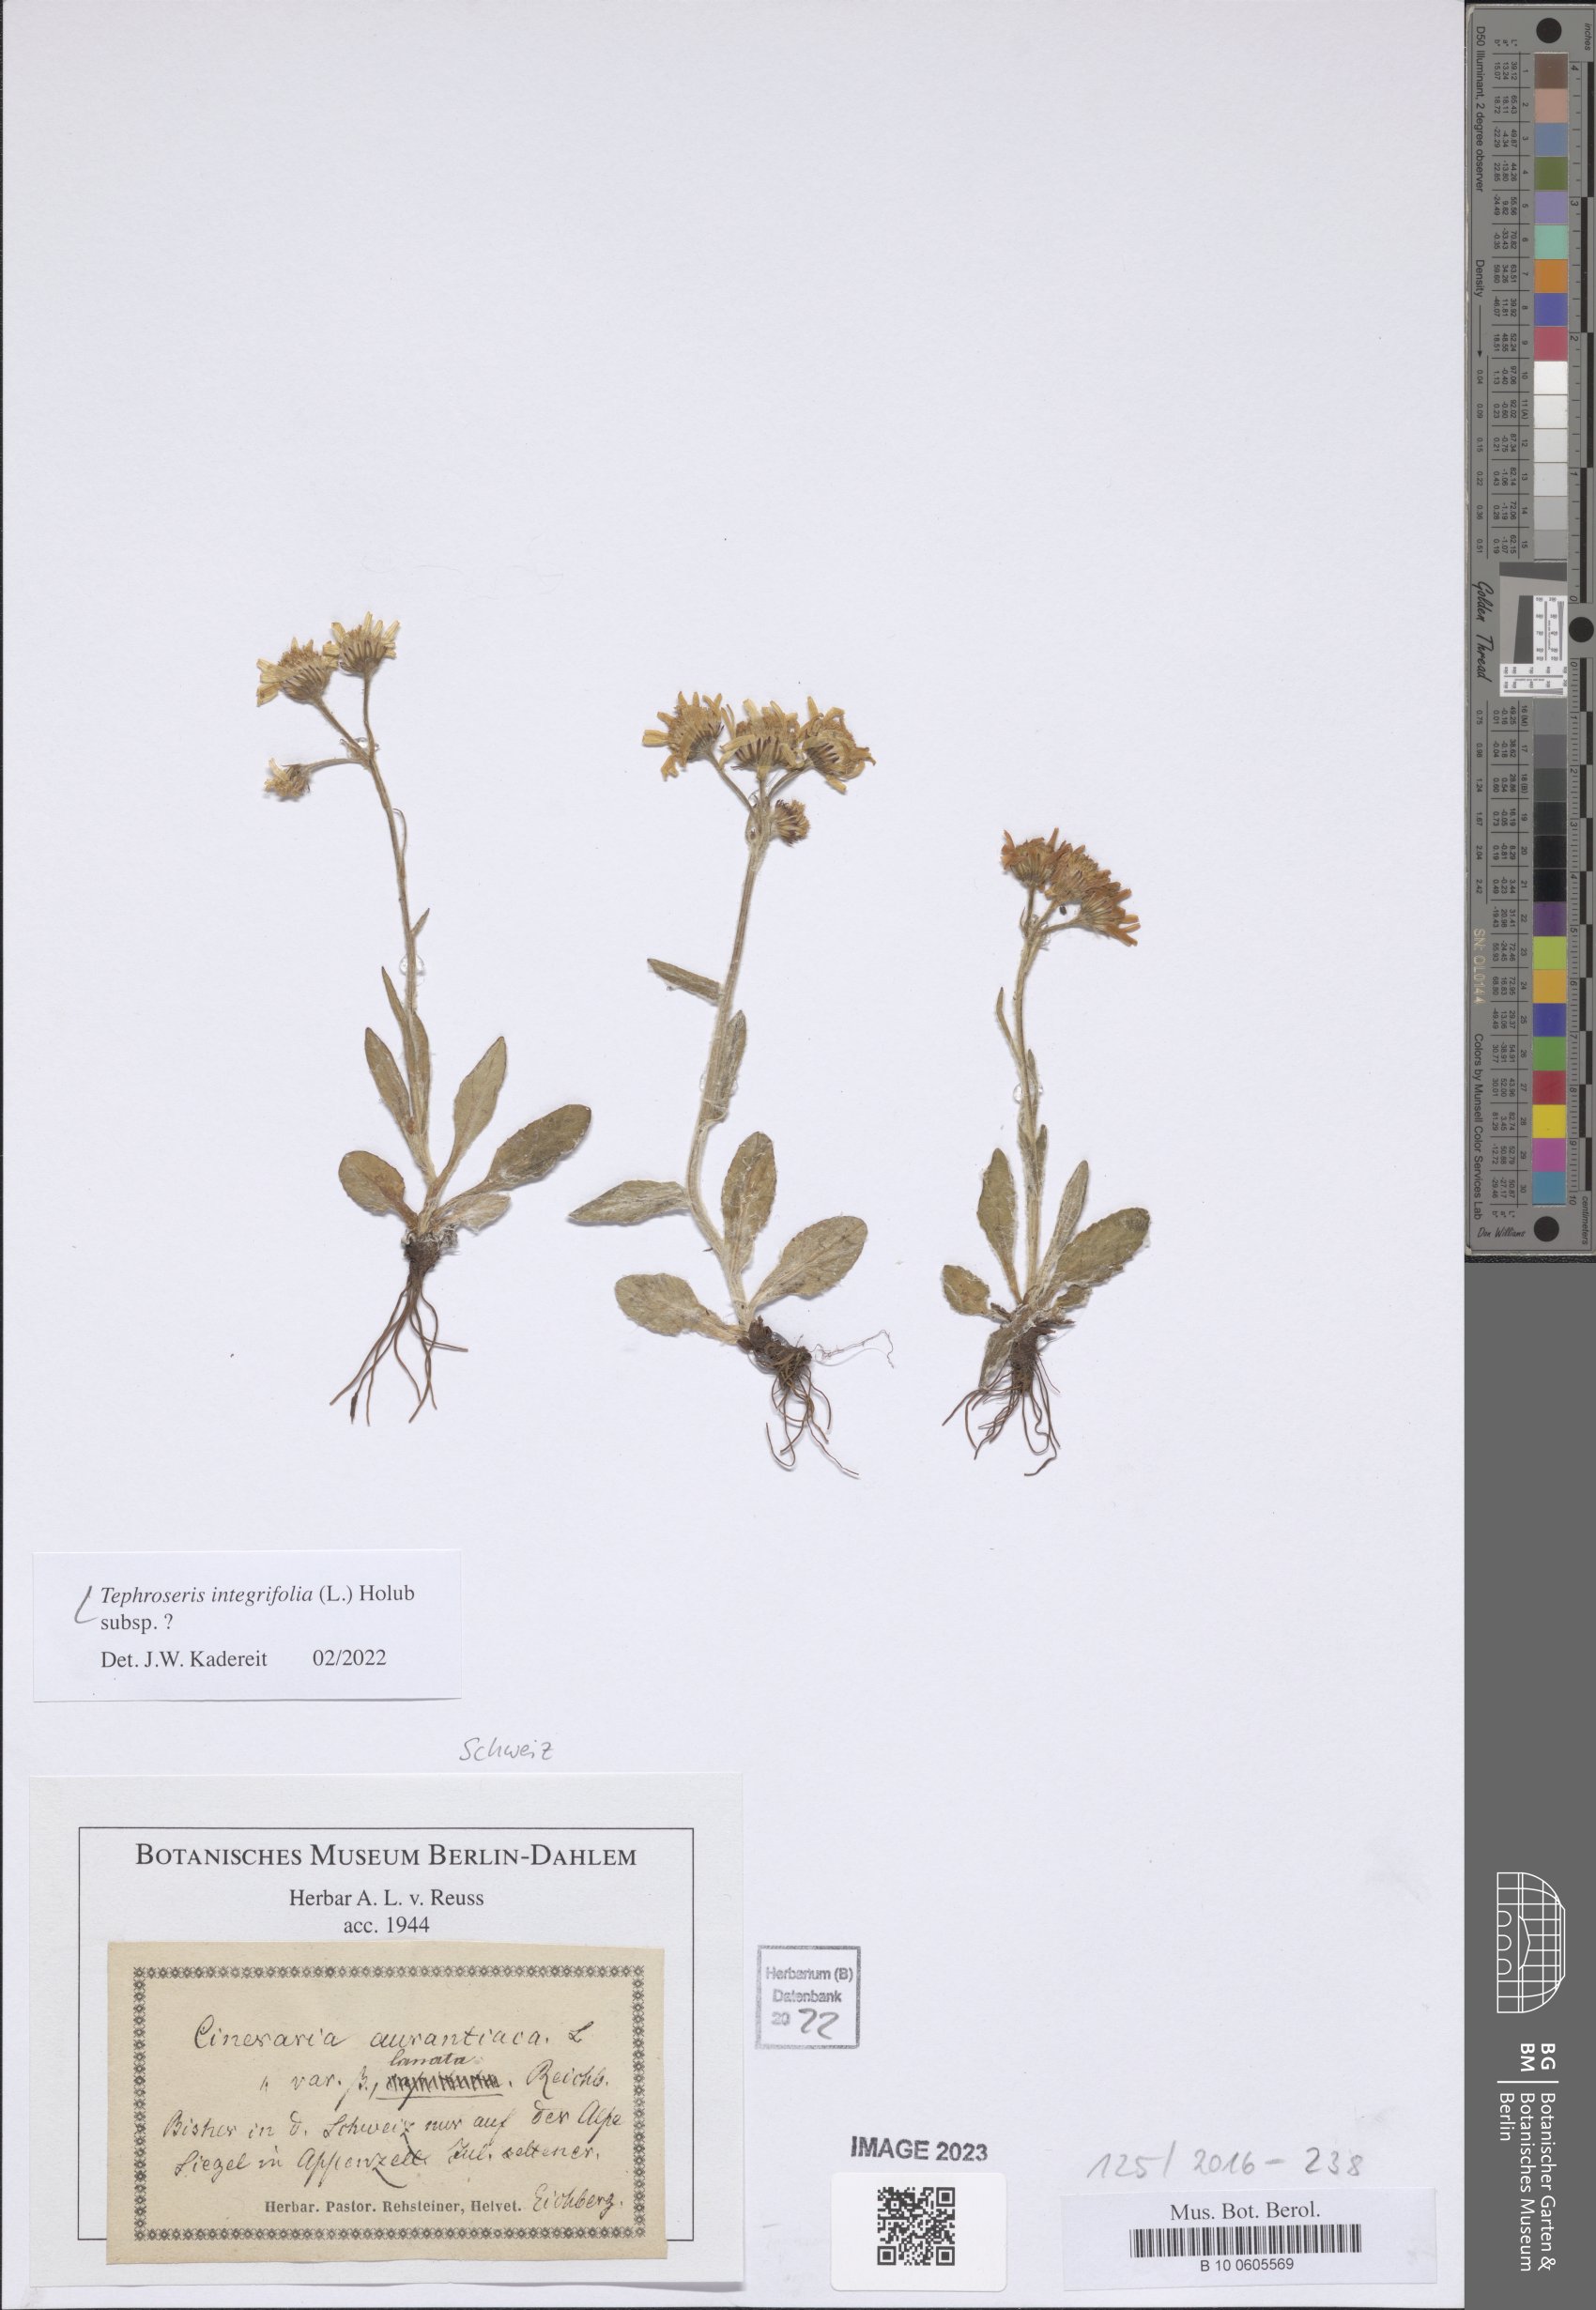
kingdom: Plantae
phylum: Tracheophyta
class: Magnoliopsida
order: Asterales
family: Asteraceae
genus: Tephroseris
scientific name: Tephroseris integrifolia
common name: Field fleawort
